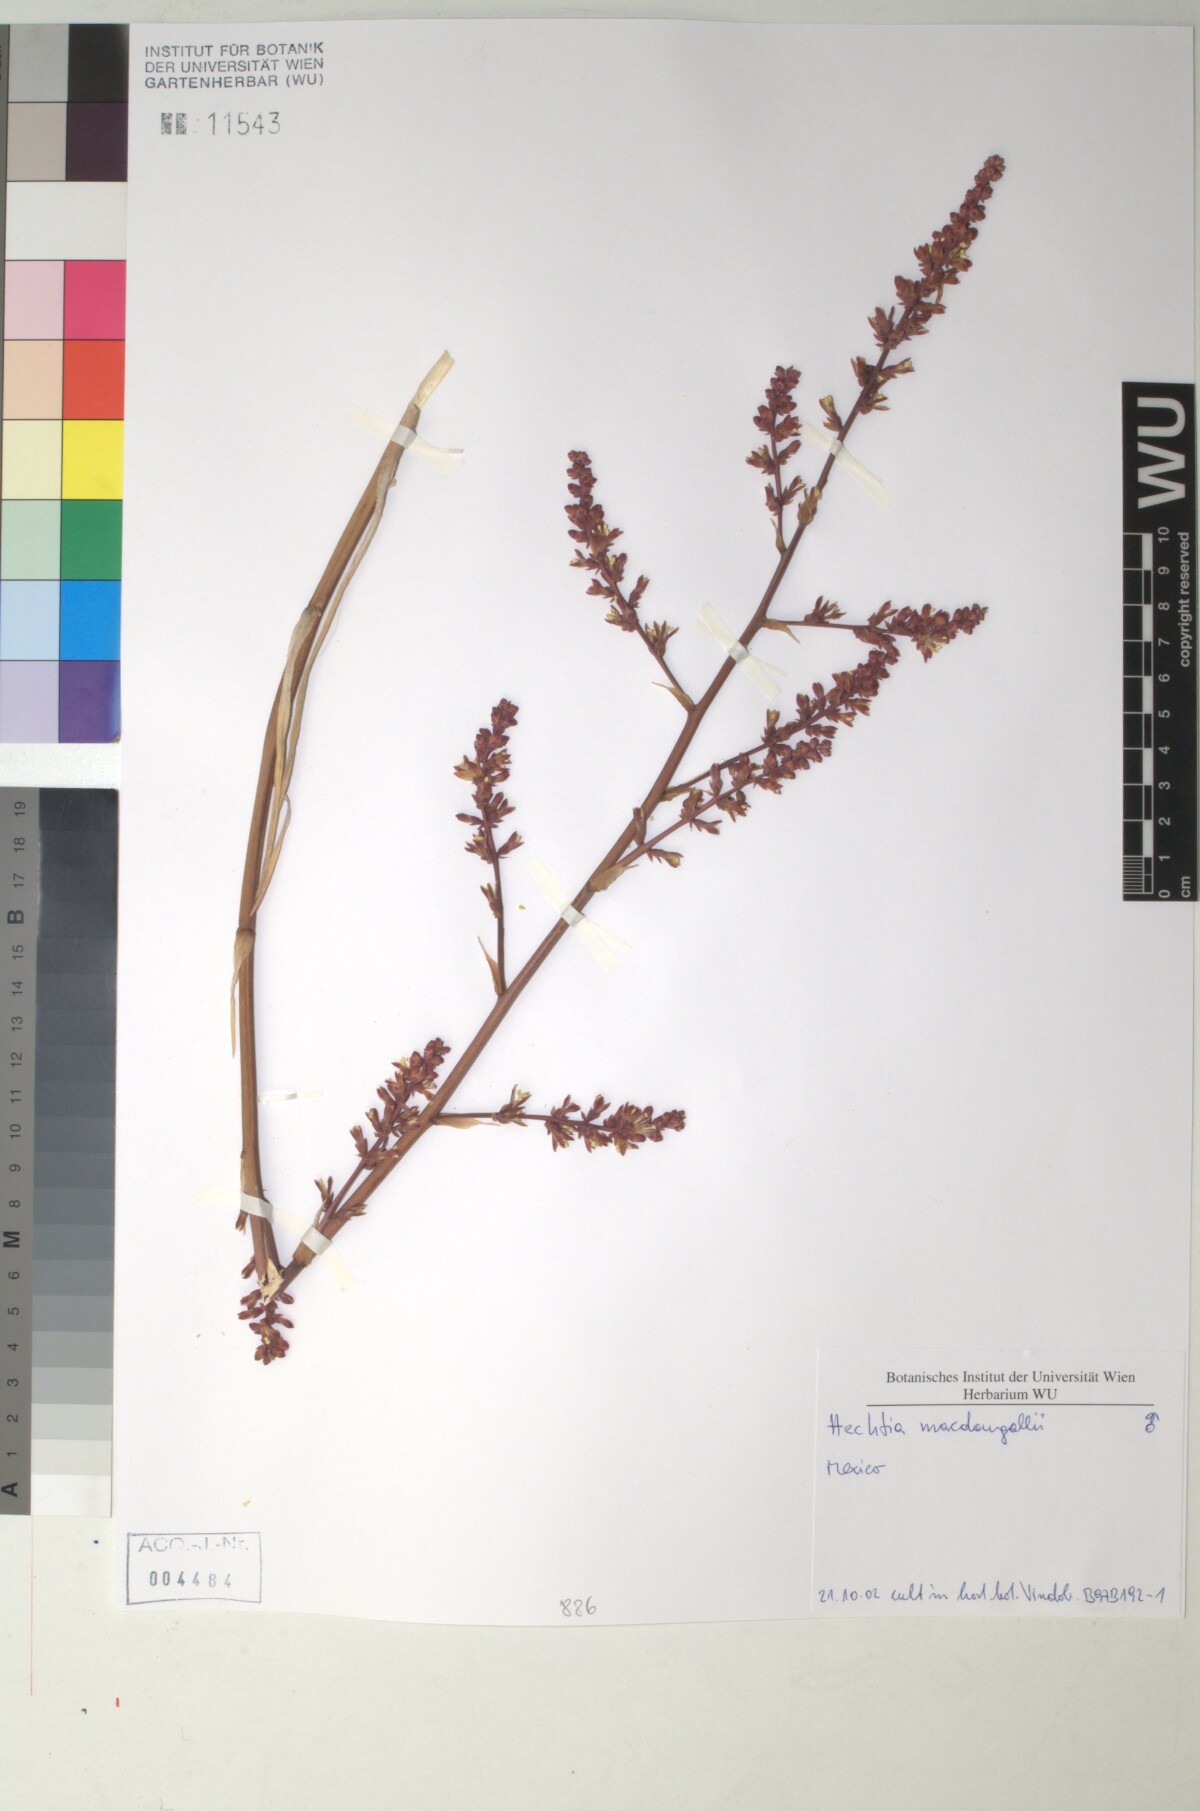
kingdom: Plantae
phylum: Tracheophyta
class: Liliopsida
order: Poales
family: Bromeliaceae
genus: Hechtia
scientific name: Hechtia
